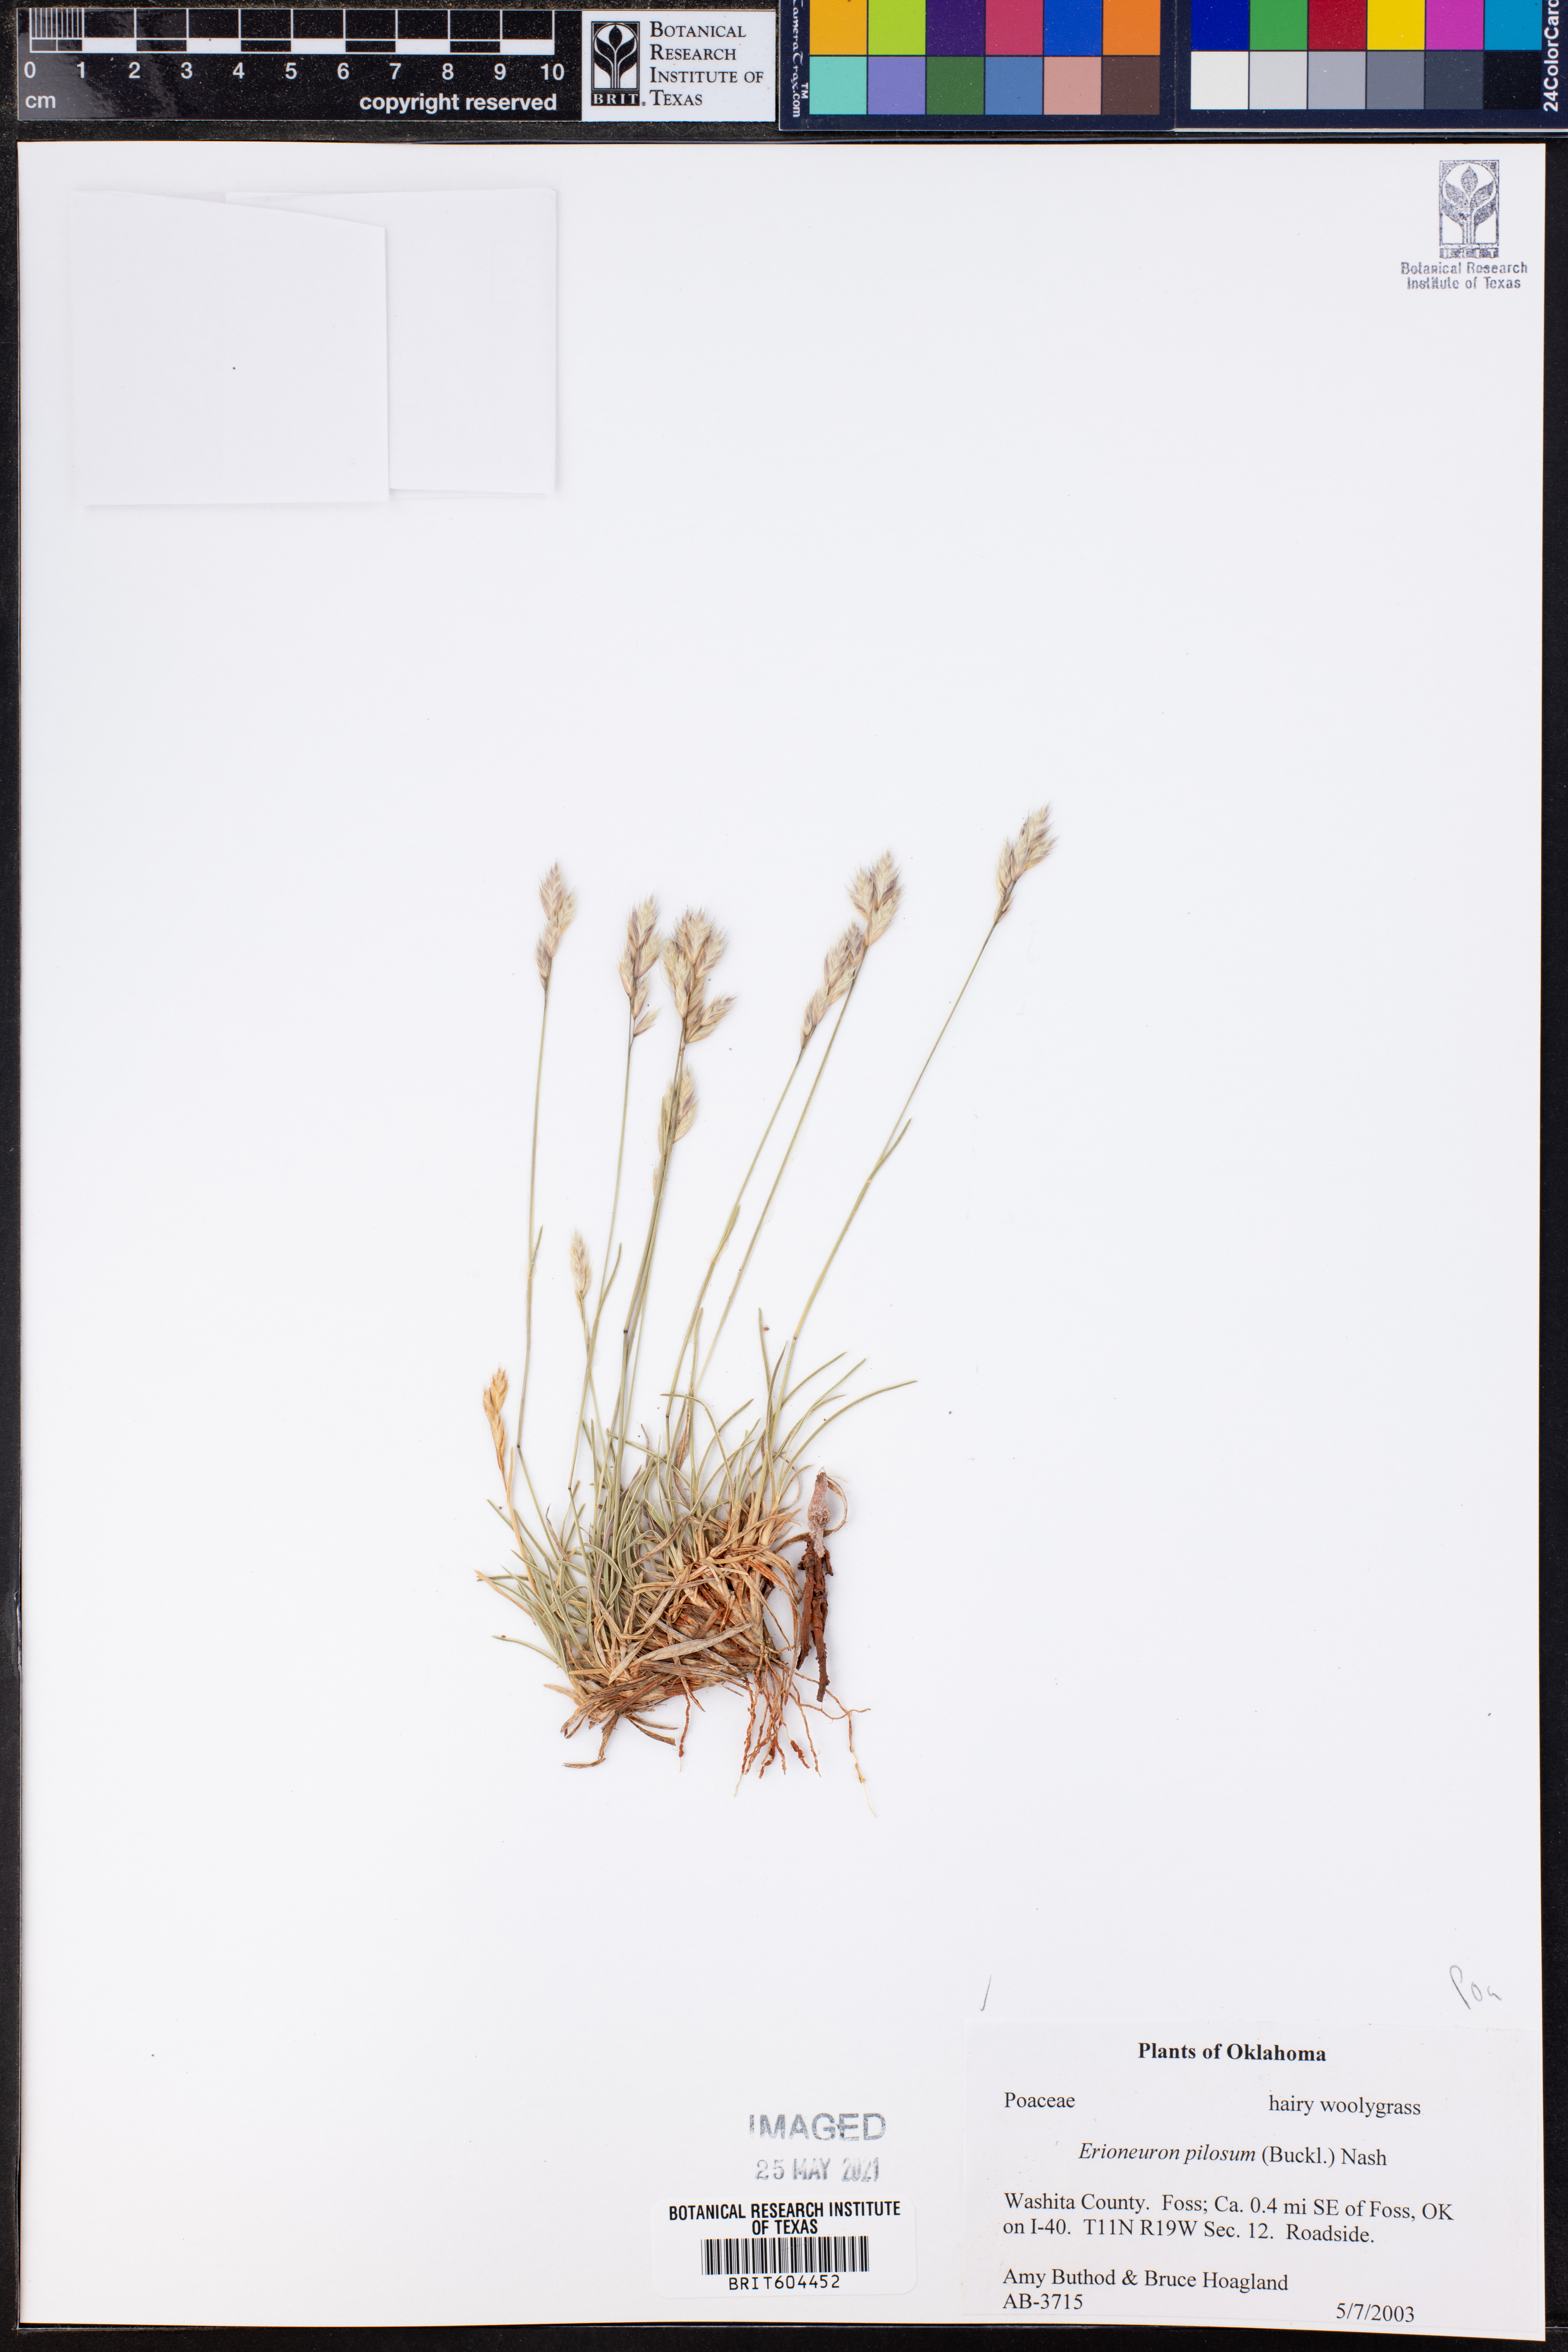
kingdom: Plantae
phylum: Tracheophyta
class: Liliopsida
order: Poales
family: Poaceae
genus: Erioneuron
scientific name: Erioneuron pilosum
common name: Hairy woolly grass
